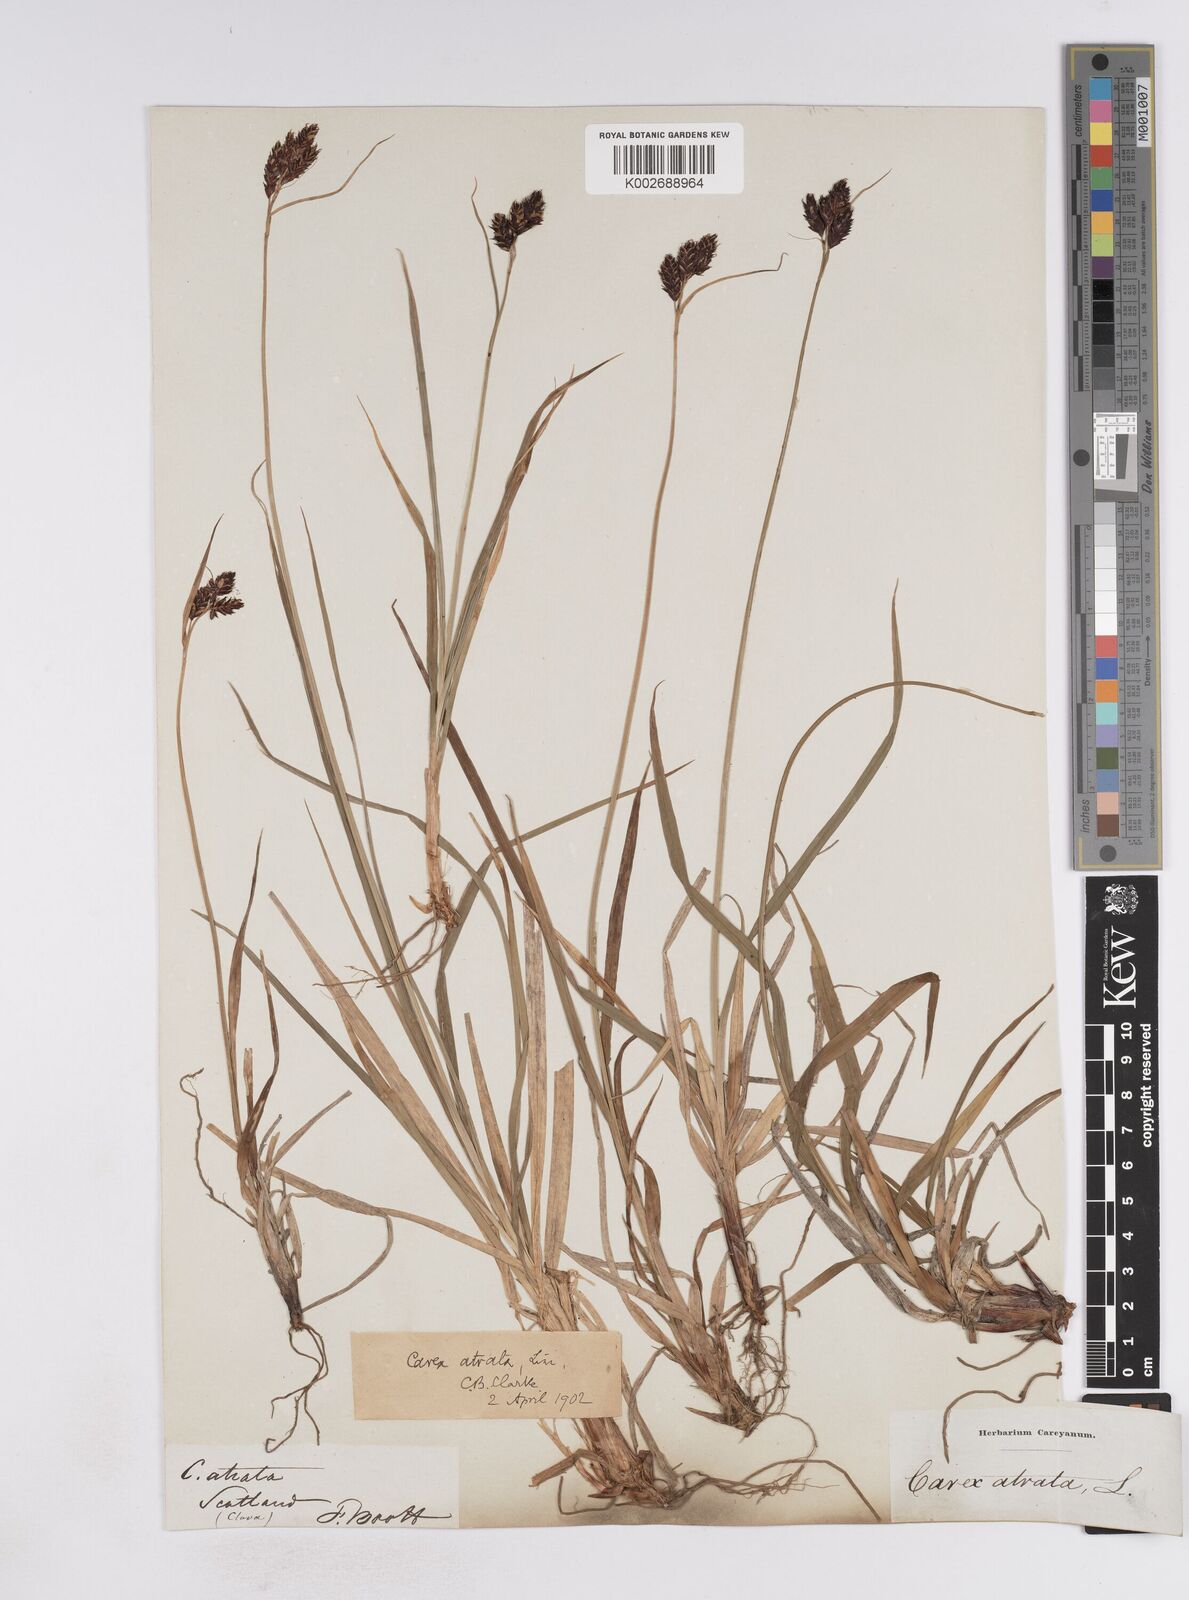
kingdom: Plantae
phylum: Tracheophyta
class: Liliopsida
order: Poales
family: Cyperaceae
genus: Carex
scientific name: Carex atrata
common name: Black alpine sedge
